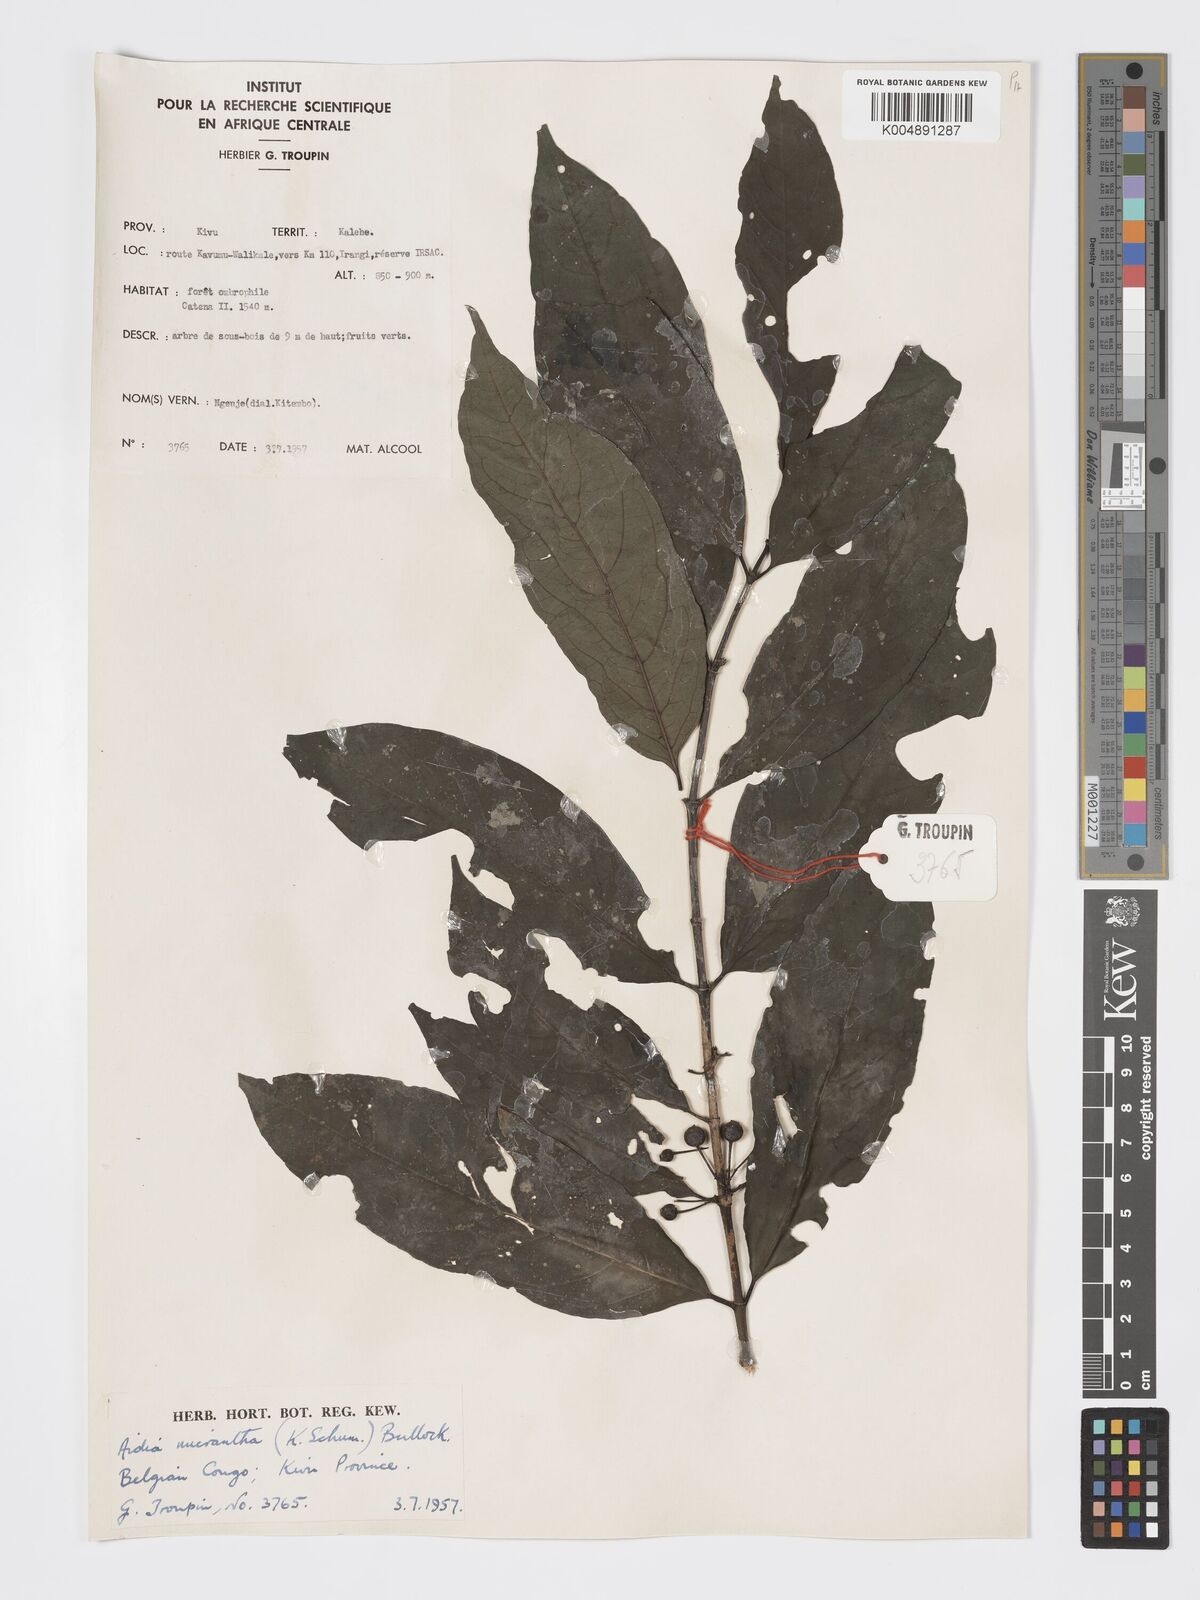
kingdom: Plantae
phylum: Tracheophyta
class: Magnoliopsida
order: Gentianales
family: Rubiaceae
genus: Aidia
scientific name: Aidia micrantha
